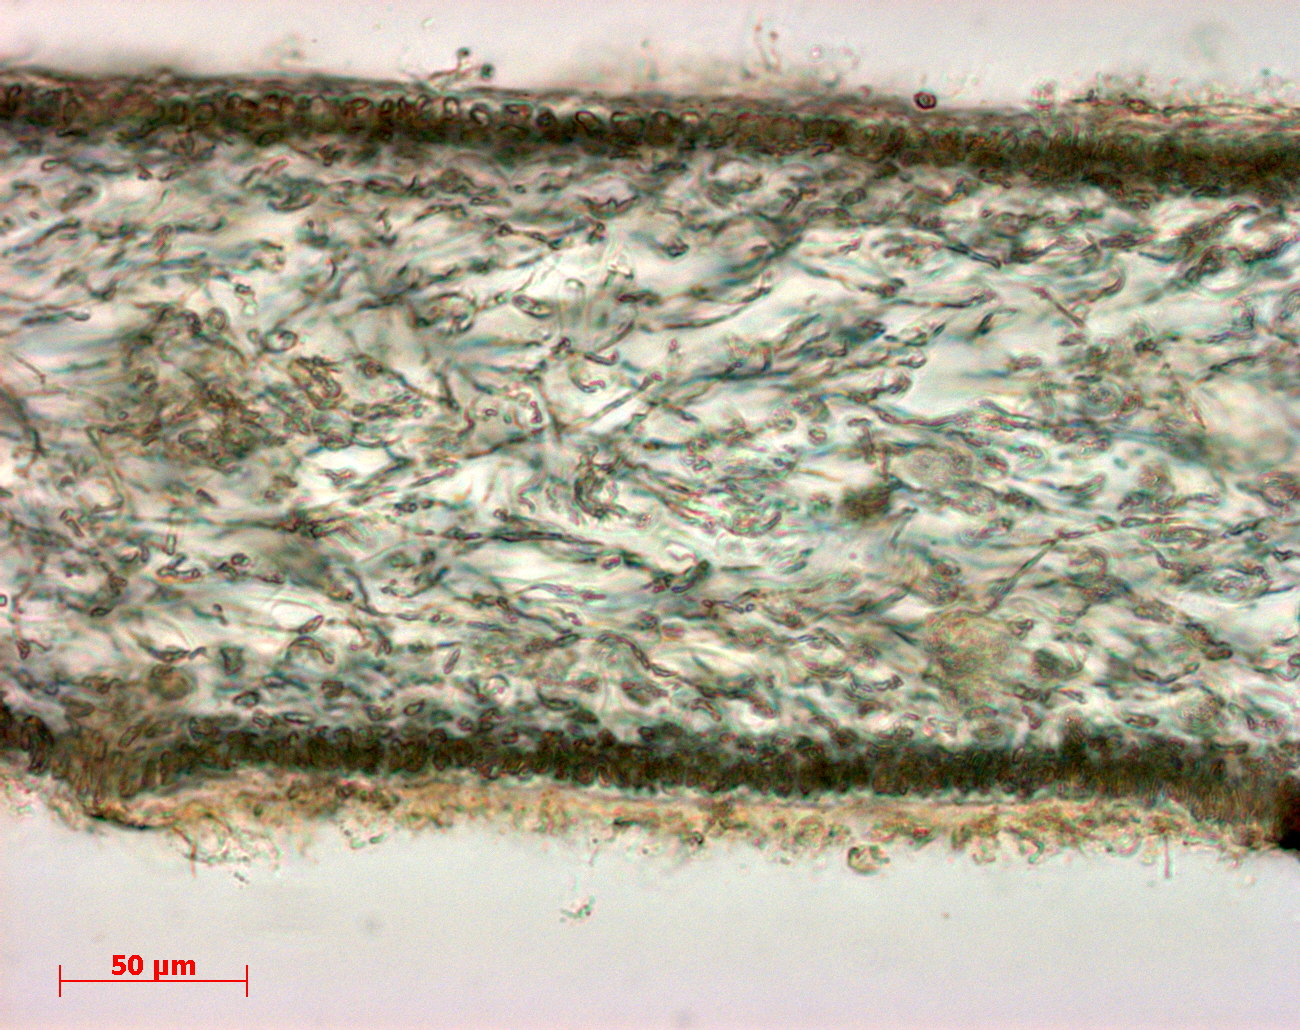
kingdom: Plantae
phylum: Rhodophyta
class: Florideophyceae
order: Halymeniales
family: Halymeniaceae
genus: Cryptonemia
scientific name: Cryptonemia latissima
